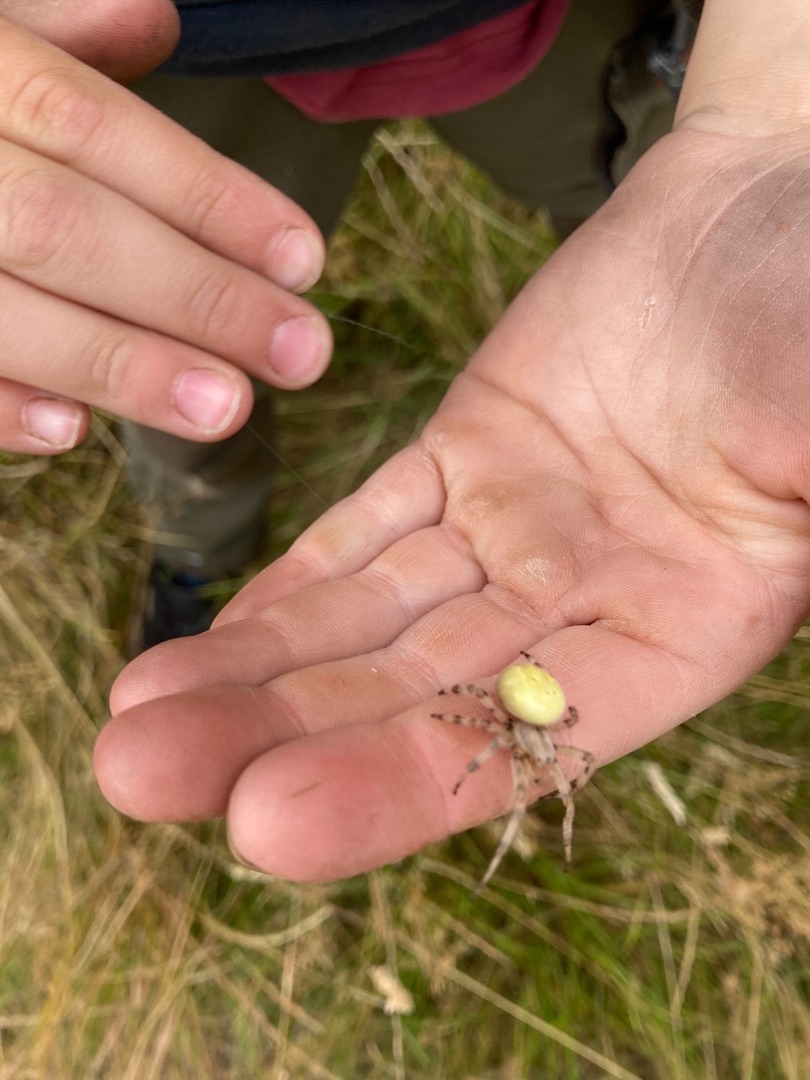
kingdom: Animalia
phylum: Arthropoda
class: Arachnida
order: Araneae
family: Araneidae
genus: Araneus
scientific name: Araneus quadratus
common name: Kvadratedderkop
